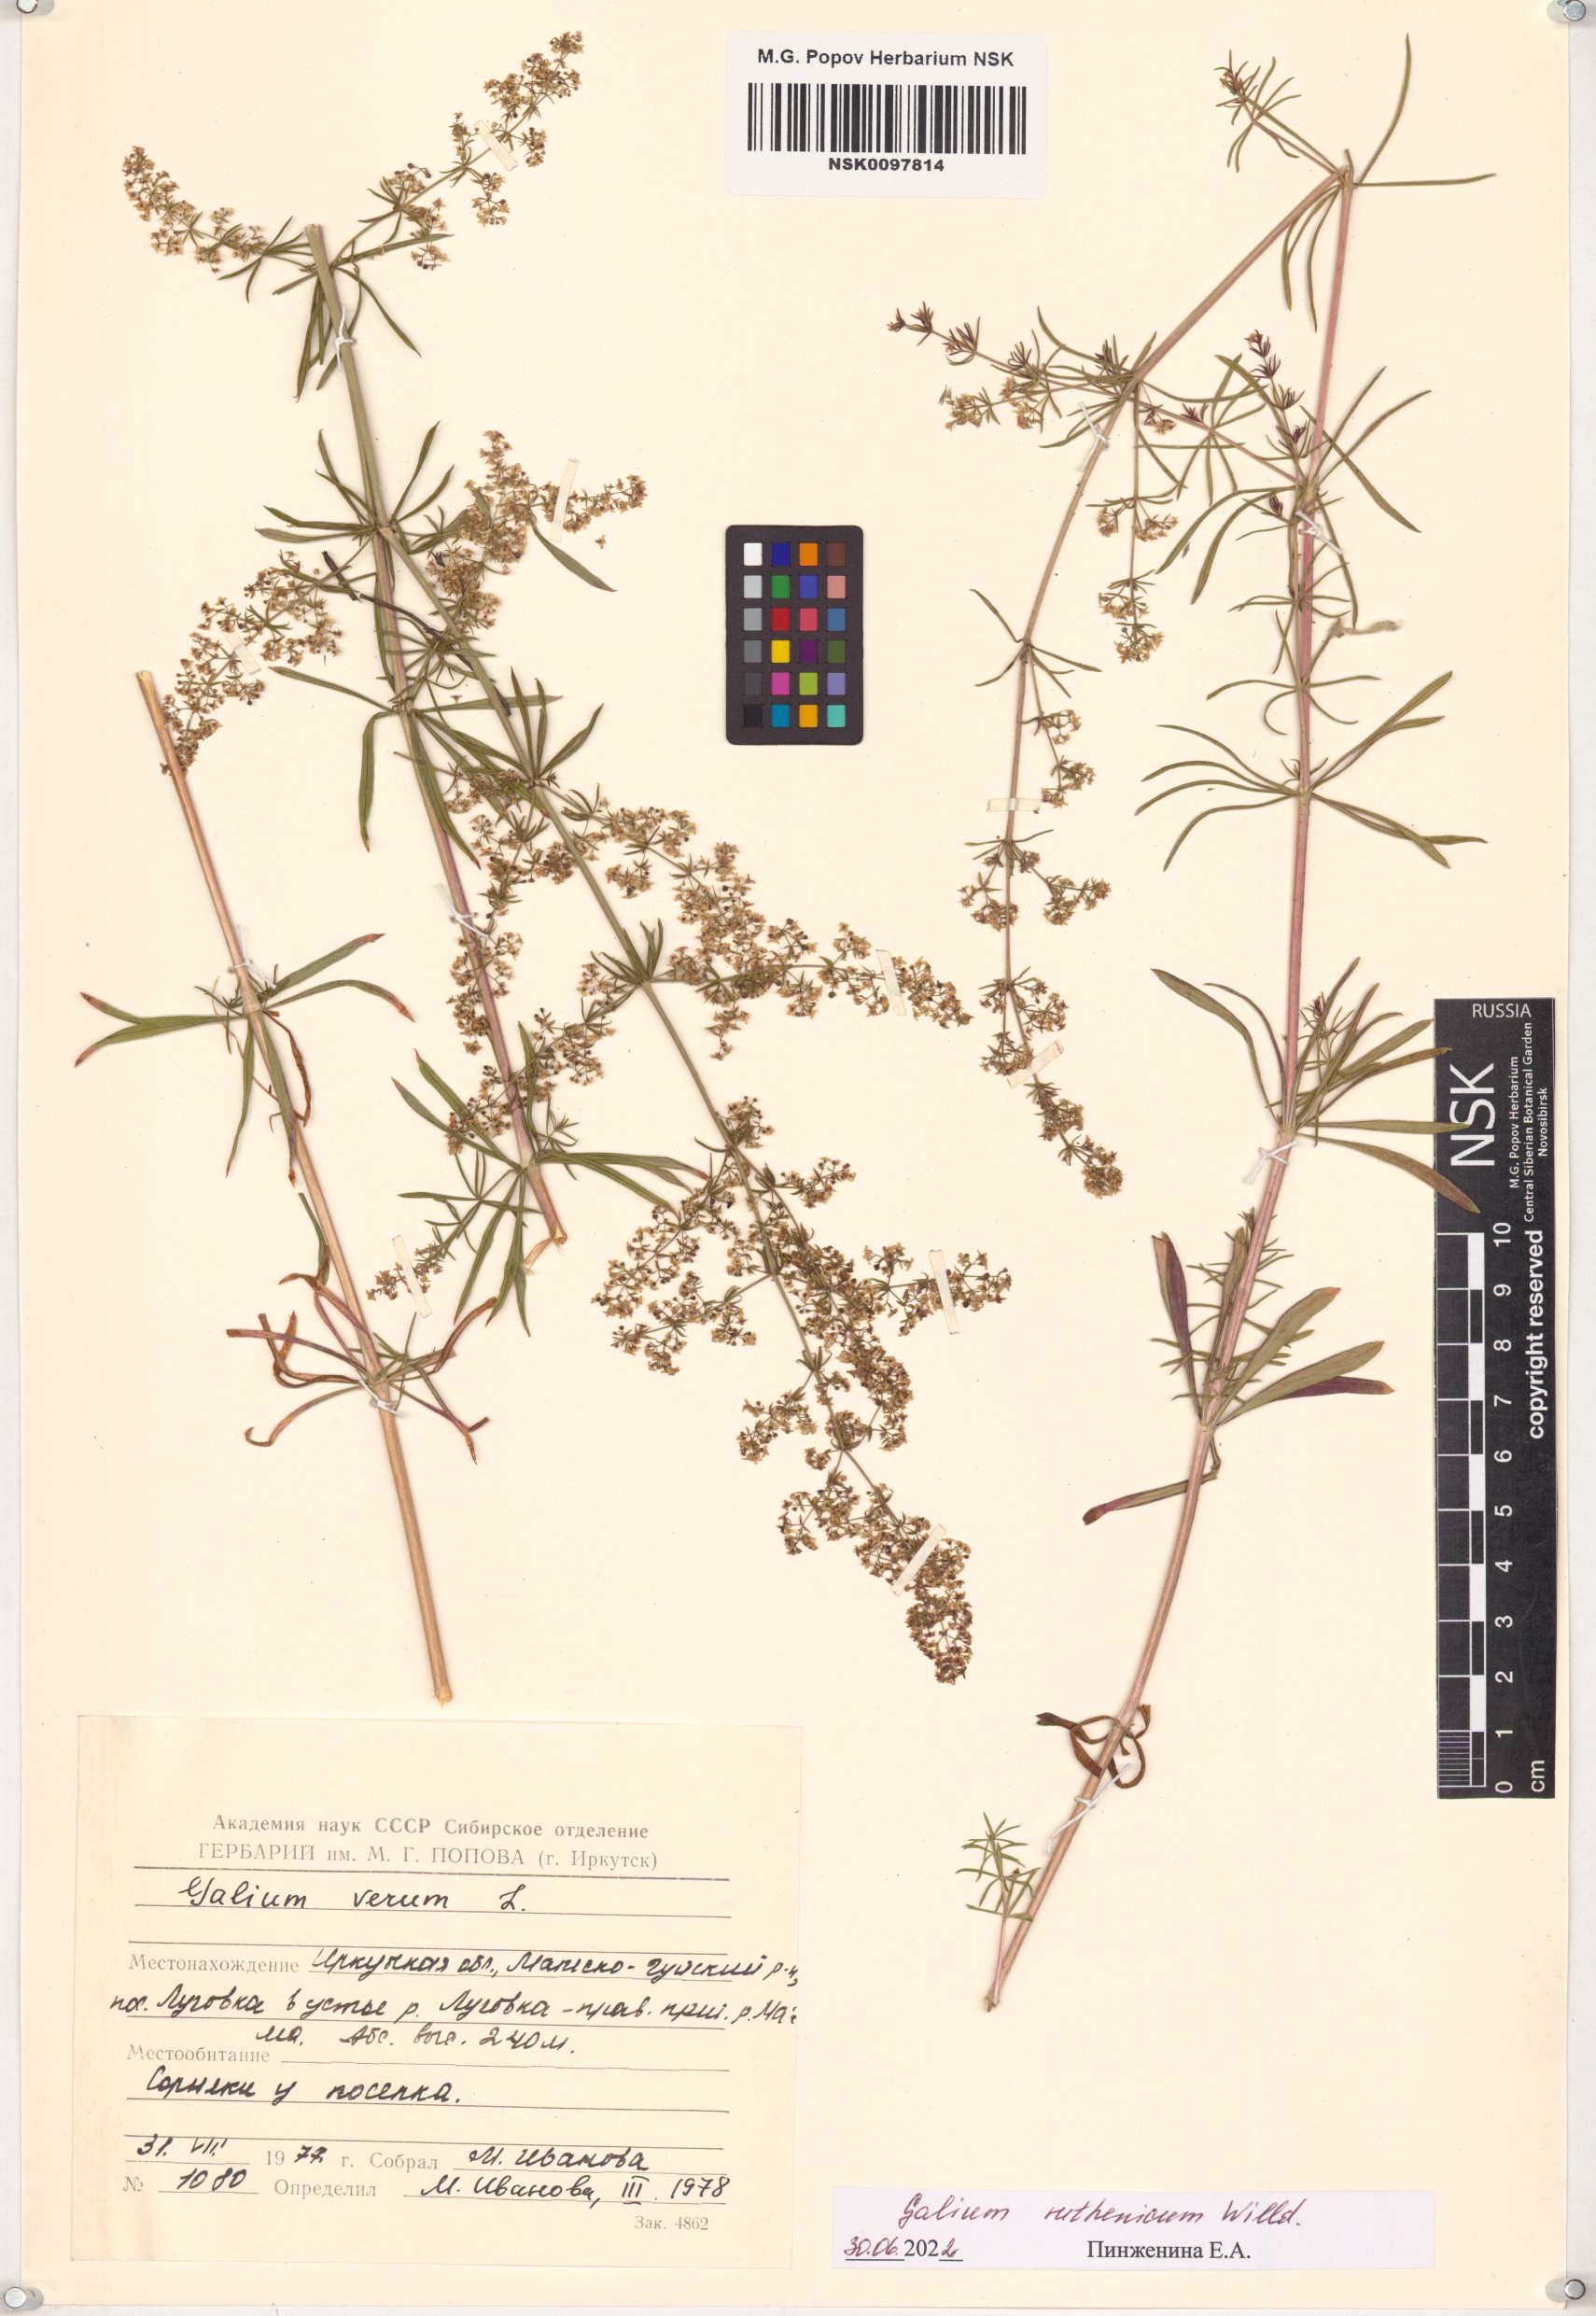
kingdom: Plantae
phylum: Tracheophyta
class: Magnoliopsida
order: Gentianales
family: Rubiaceae
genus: Galium
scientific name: Galium verum
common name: Lady's bedstraw
